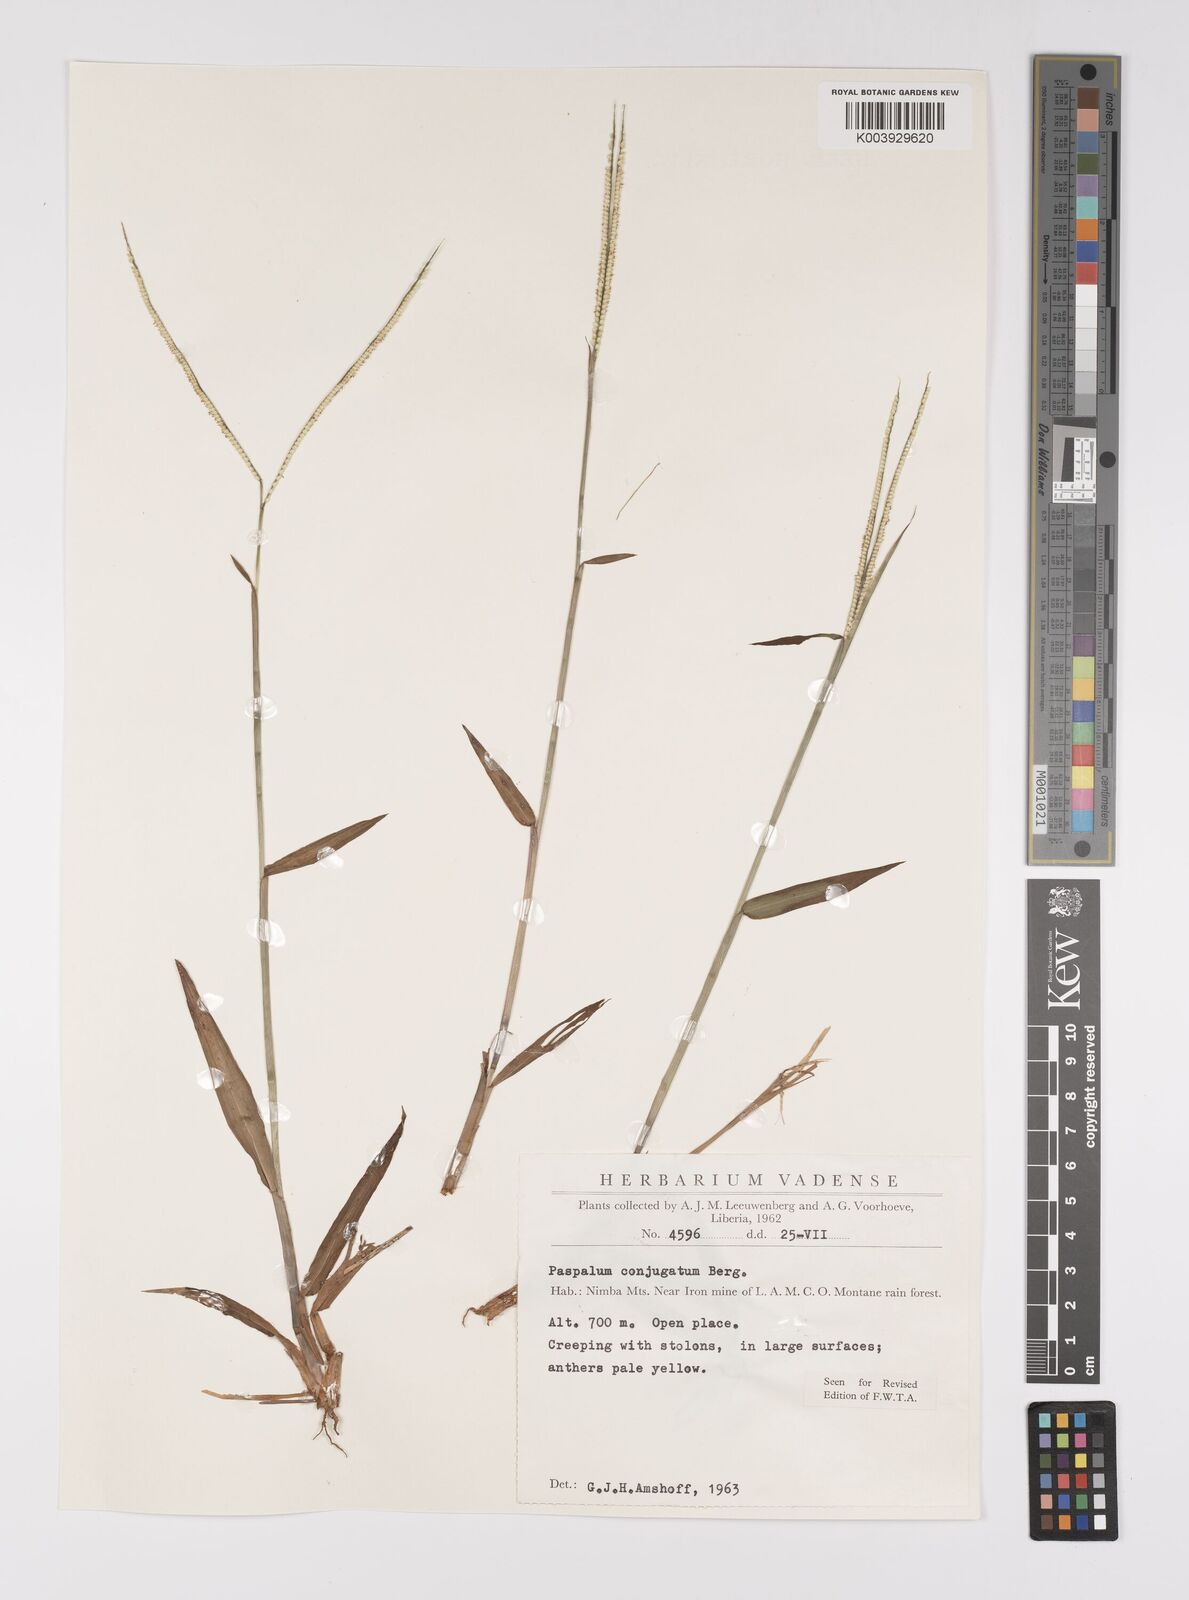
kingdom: Plantae
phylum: Tracheophyta
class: Liliopsida
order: Poales
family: Poaceae
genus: Paspalum
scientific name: Paspalum conjugatum
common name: Hilograss
